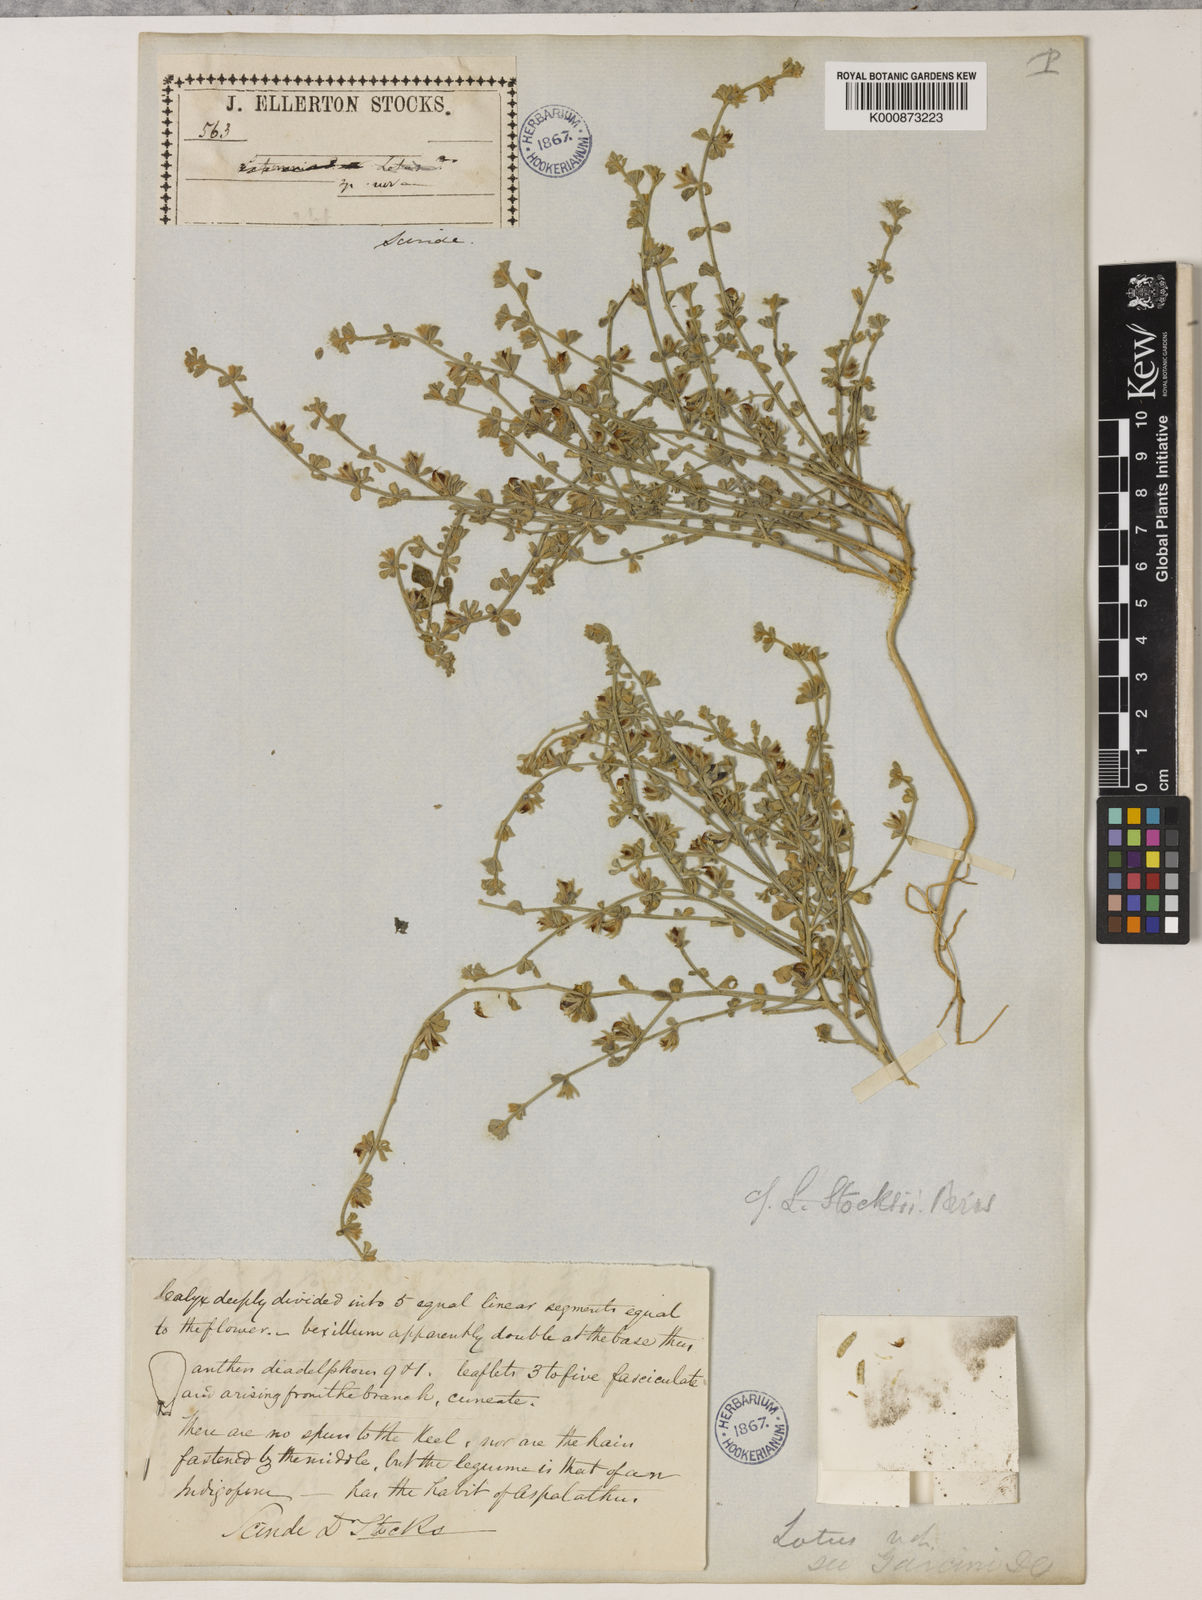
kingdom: Plantae
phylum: Tracheophyta
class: Magnoliopsida
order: Fabales
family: Fabaceae
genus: Lotus
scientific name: Lotus
